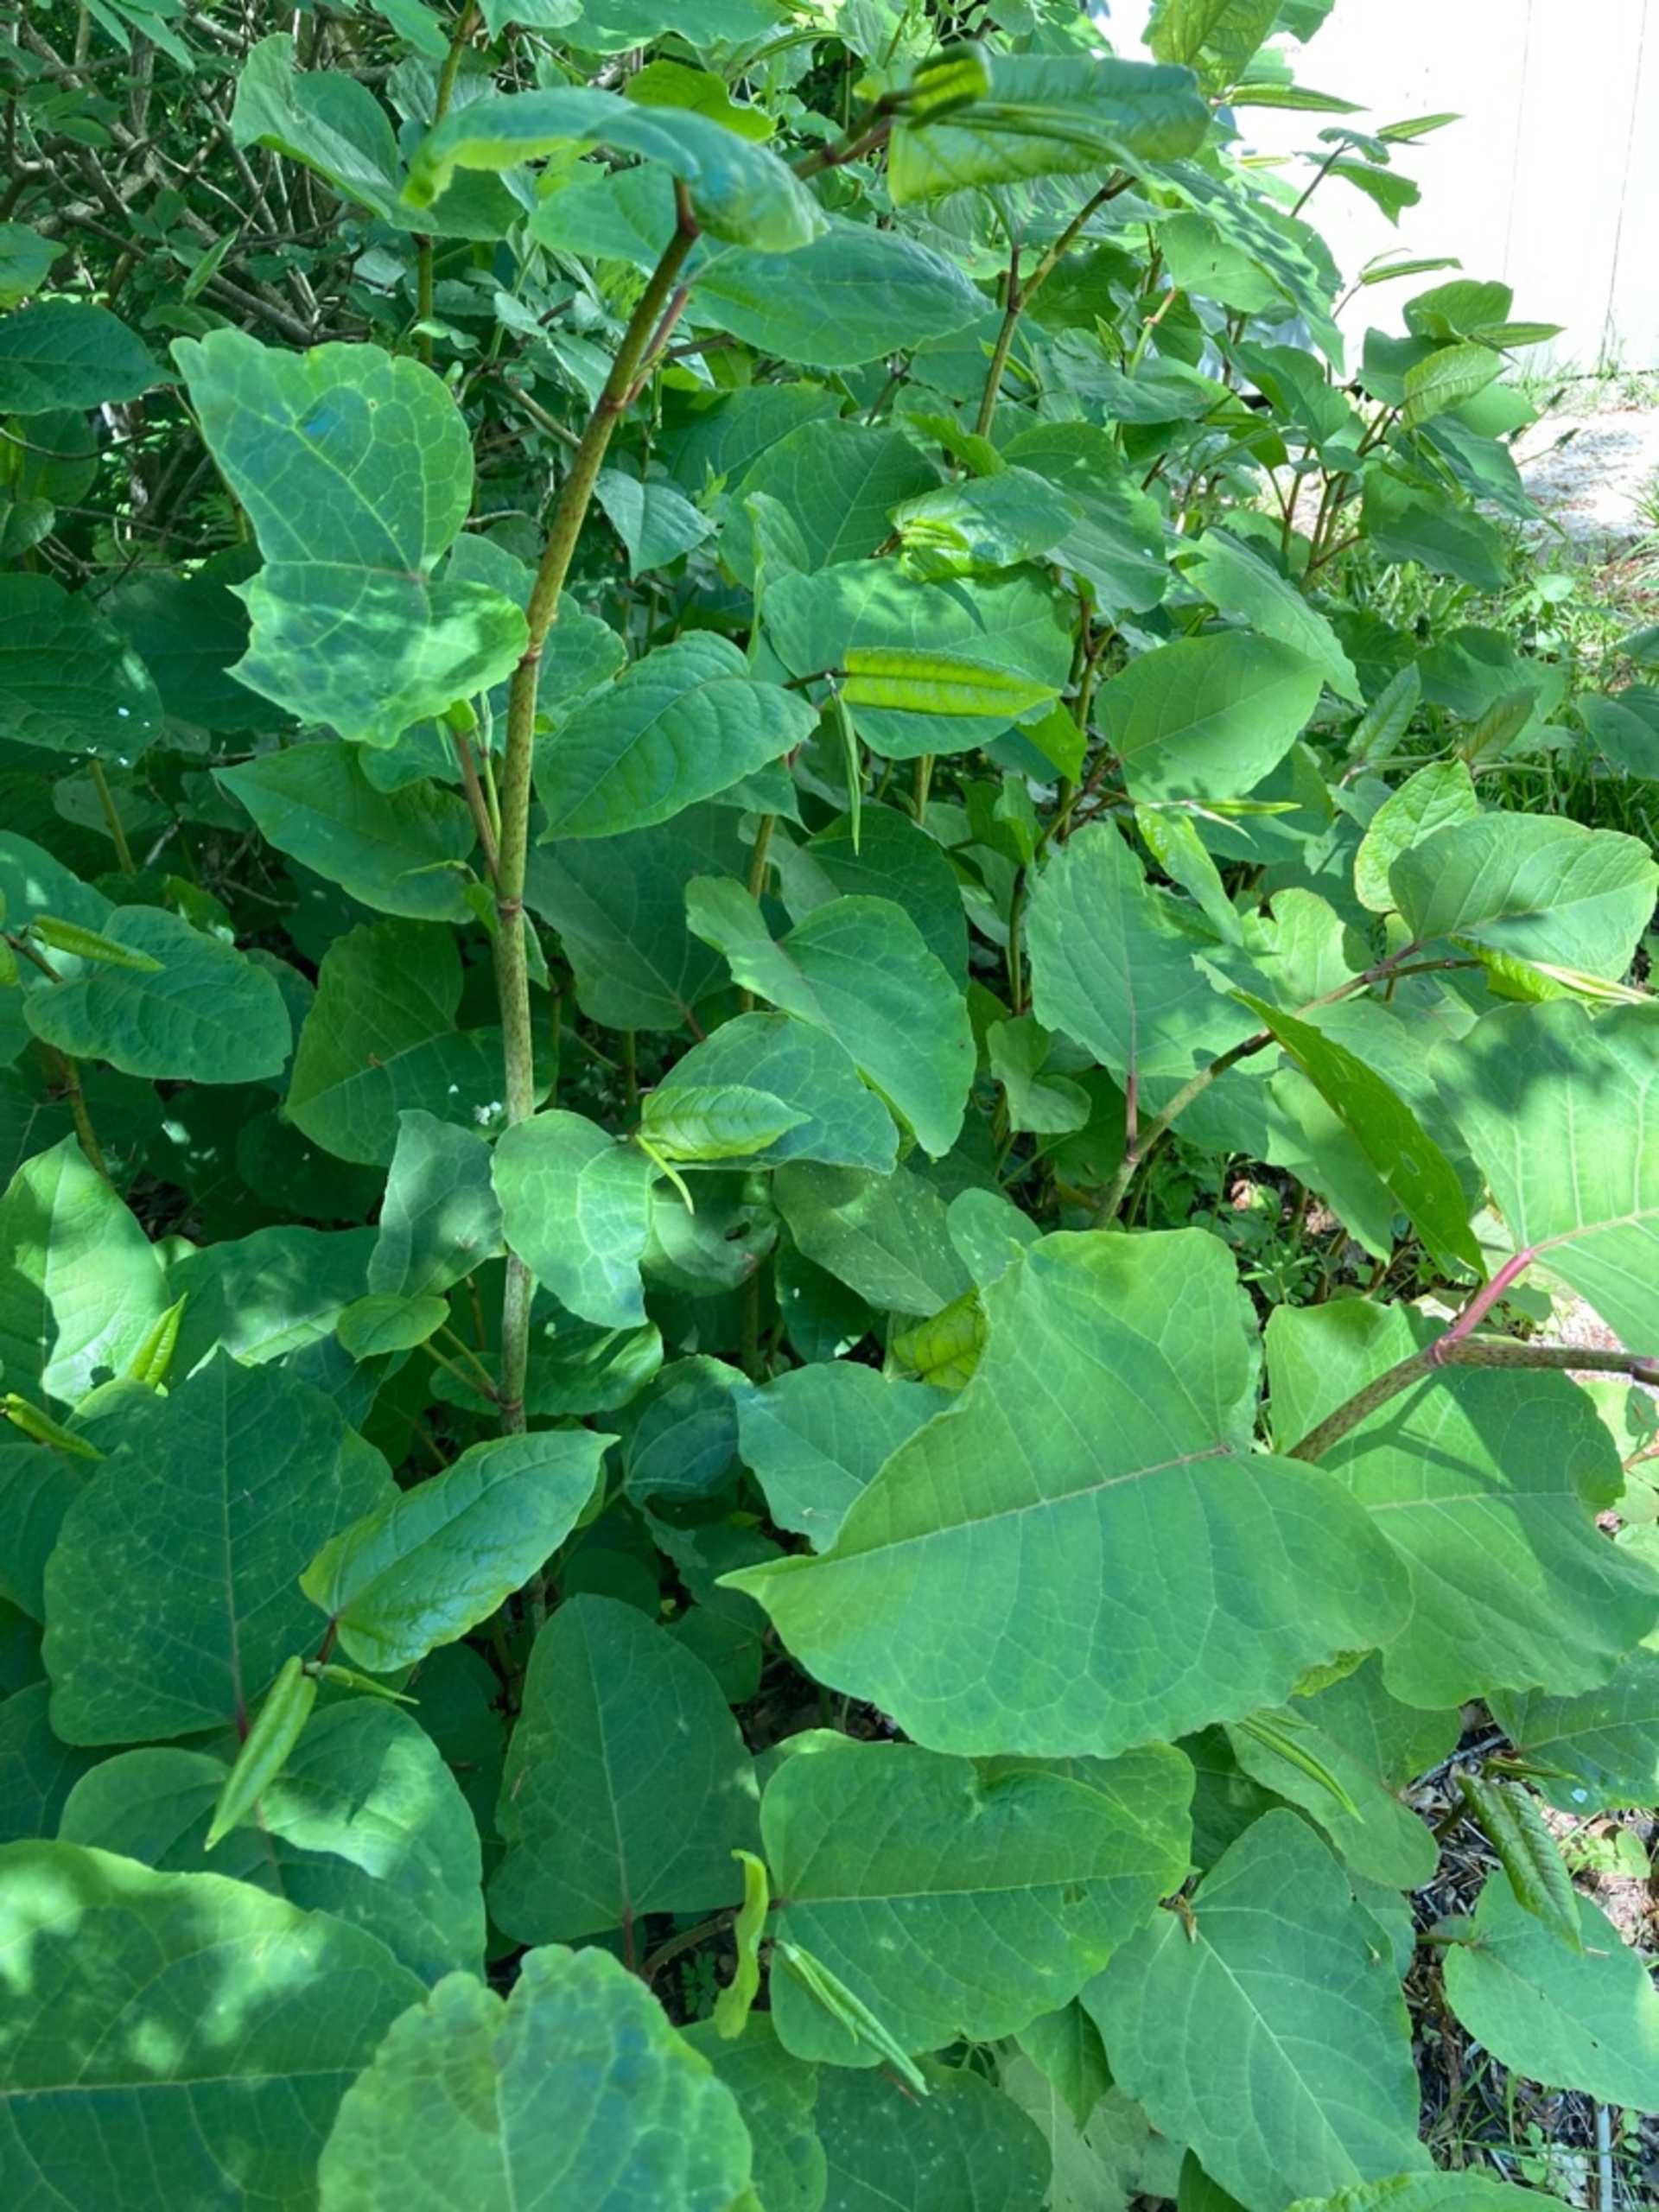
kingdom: Plantae
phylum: Tracheophyta
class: Magnoliopsida
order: Caryophyllales
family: Polygonaceae
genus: Reynoutria
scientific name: Reynoutria bohemica
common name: Hybrid-pileurt
